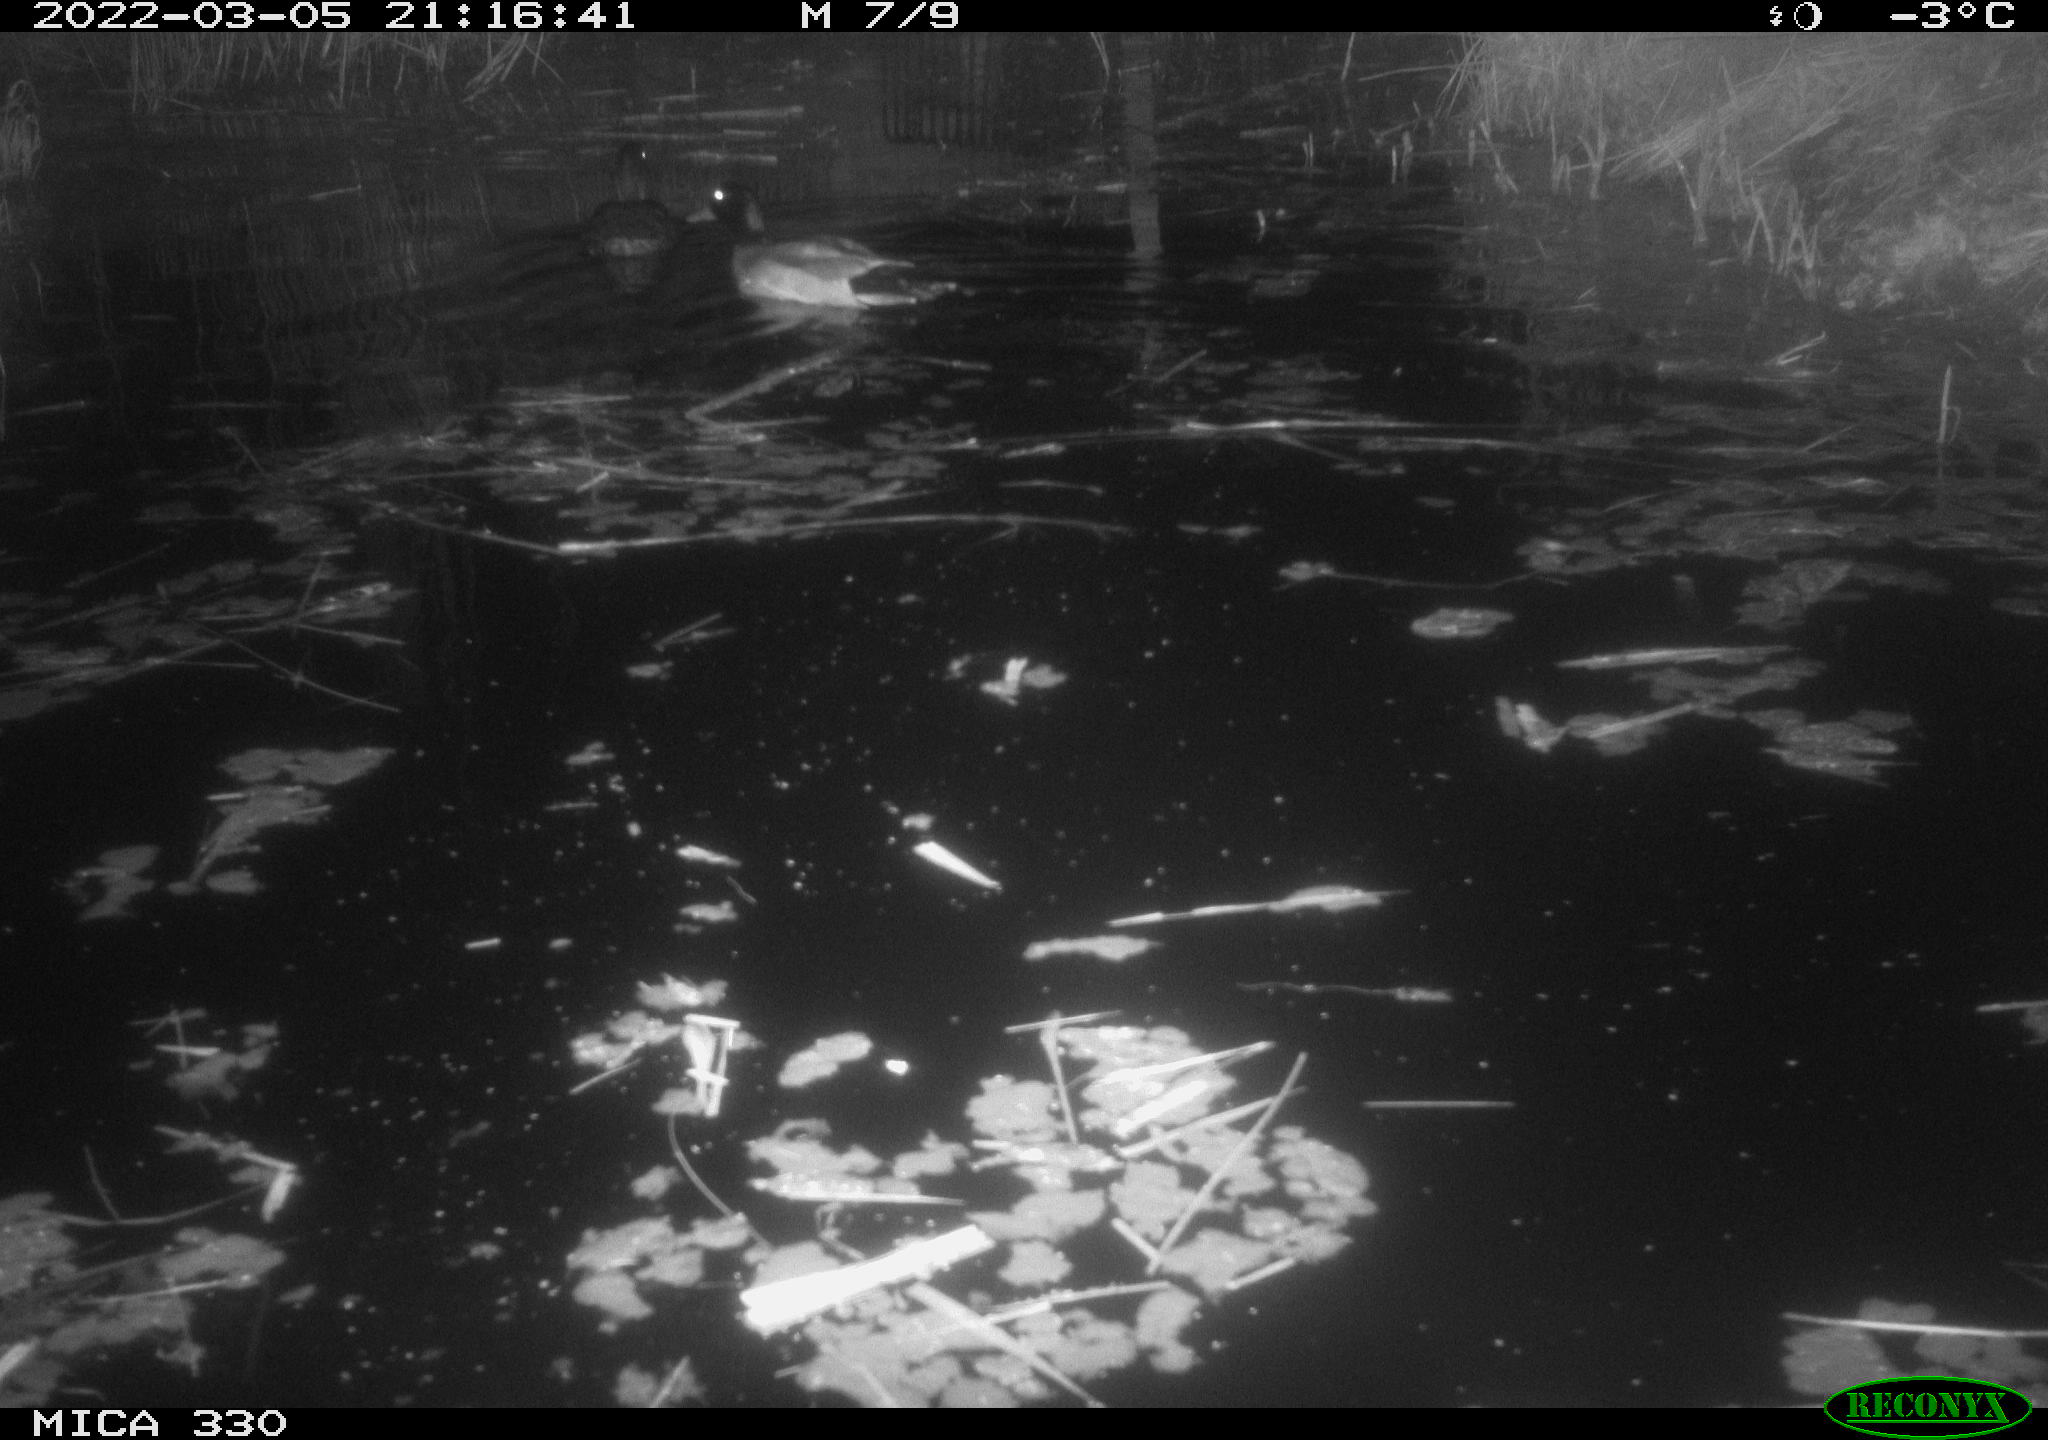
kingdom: Animalia
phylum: Chordata
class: Aves
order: Anseriformes
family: Anatidae
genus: Anas
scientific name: Anas platyrhynchos
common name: Mallard
